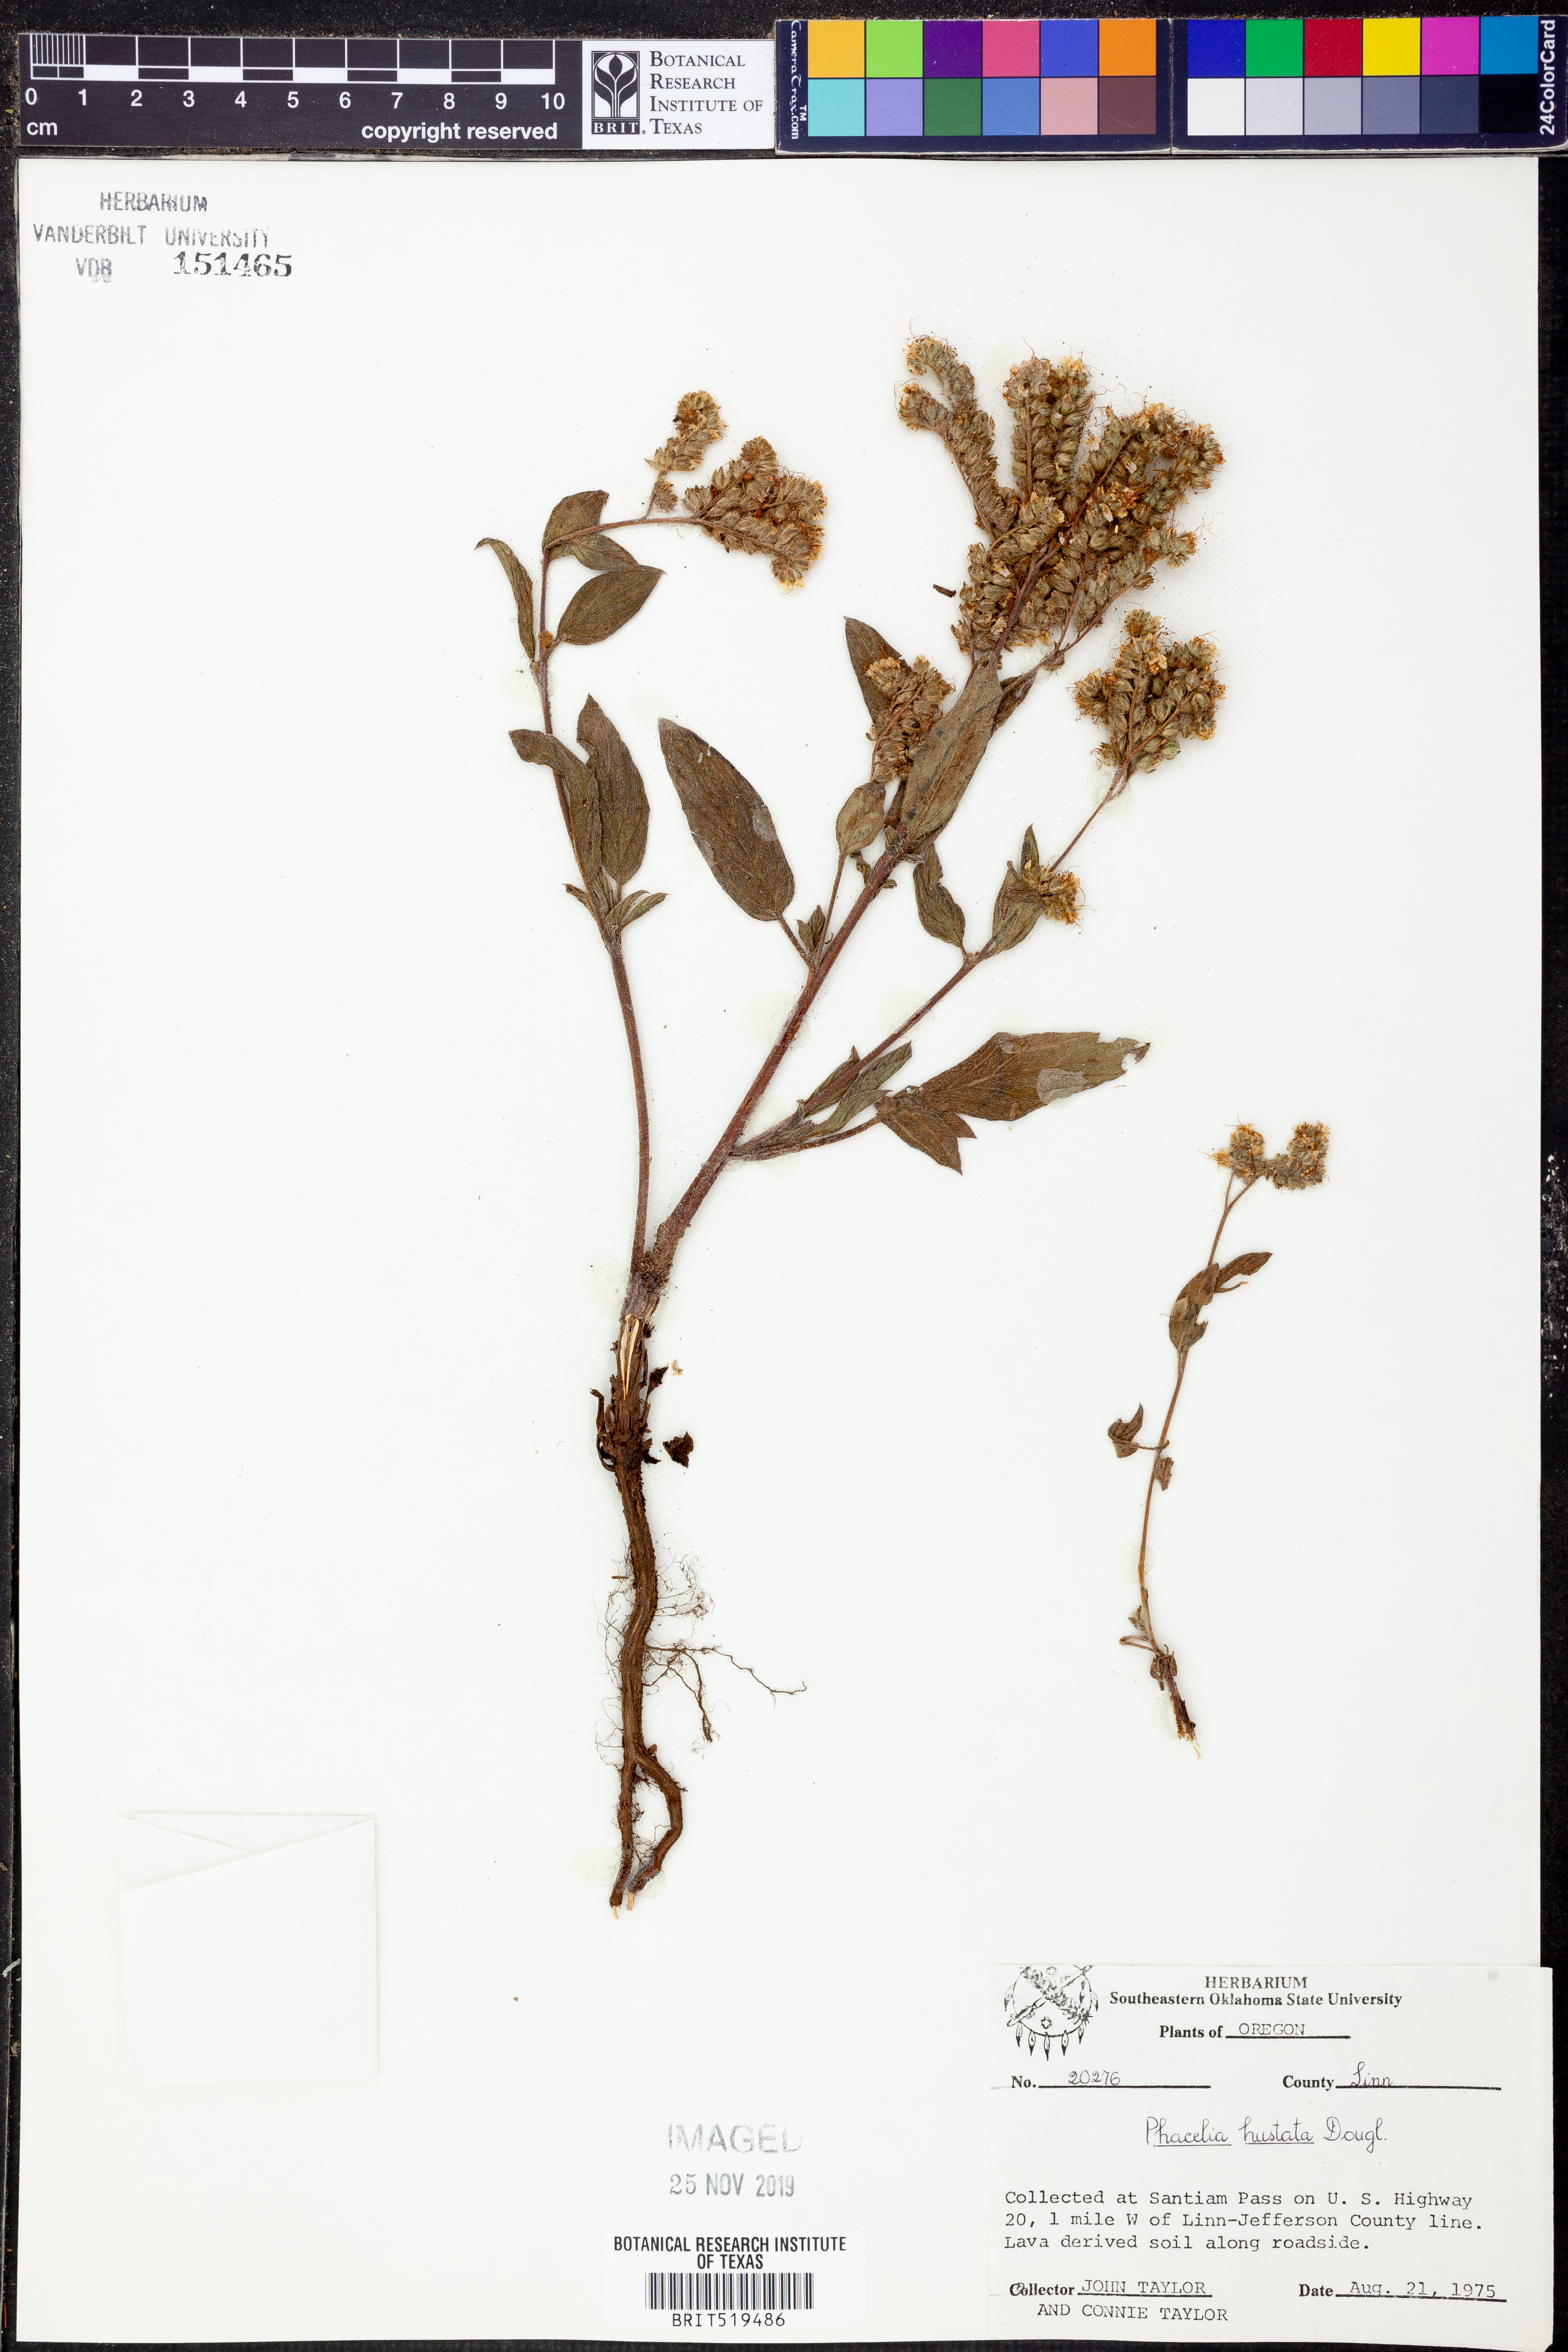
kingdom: Plantae
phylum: Tracheophyta
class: Magnoliopsida
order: Boraginales
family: Hydrophyllaceae
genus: Phacelia
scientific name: Phacelia hastata
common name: Silver-leaved phacelia
